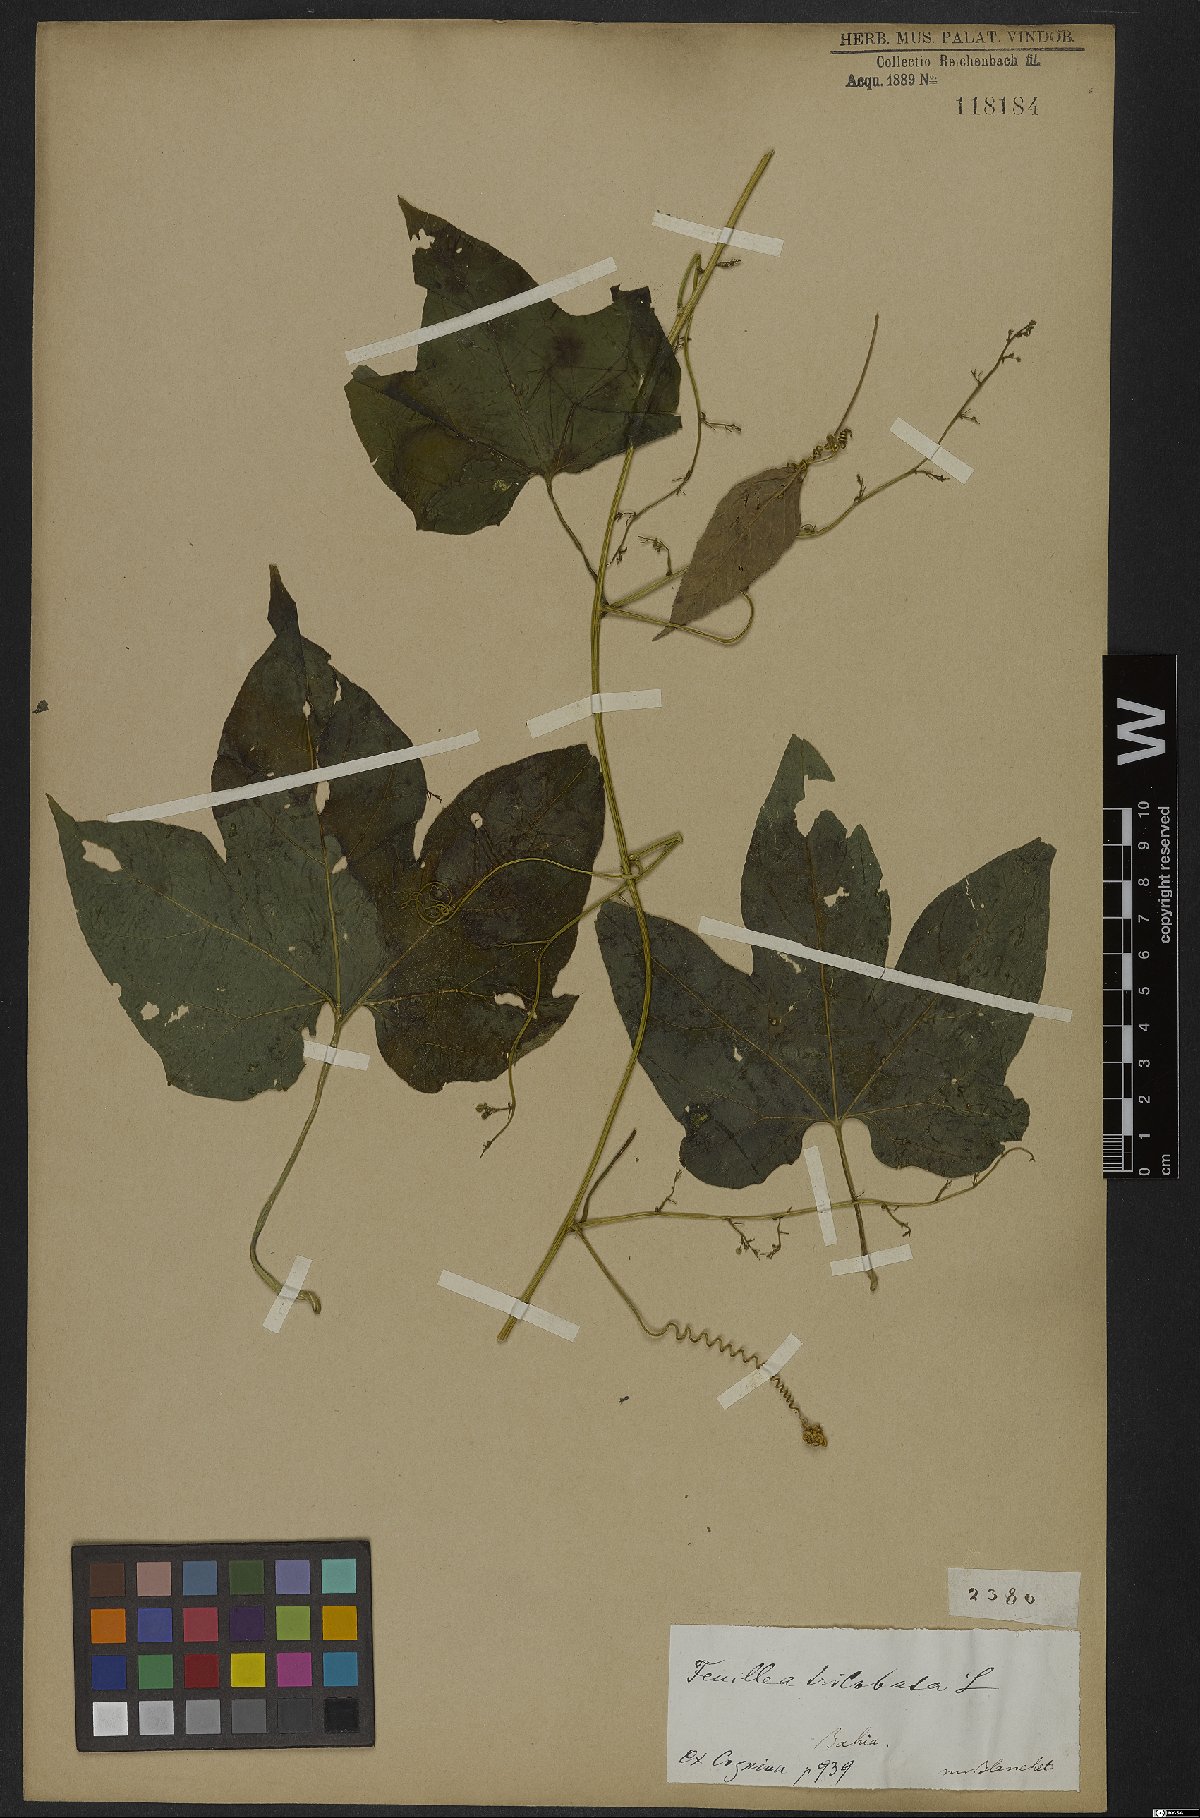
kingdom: Plantae
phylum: Tracheophyta
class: Magnoliopsida
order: Cucurbitales
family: Cucurbitaceae
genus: Fevillea
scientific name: Fevillea trilobata
